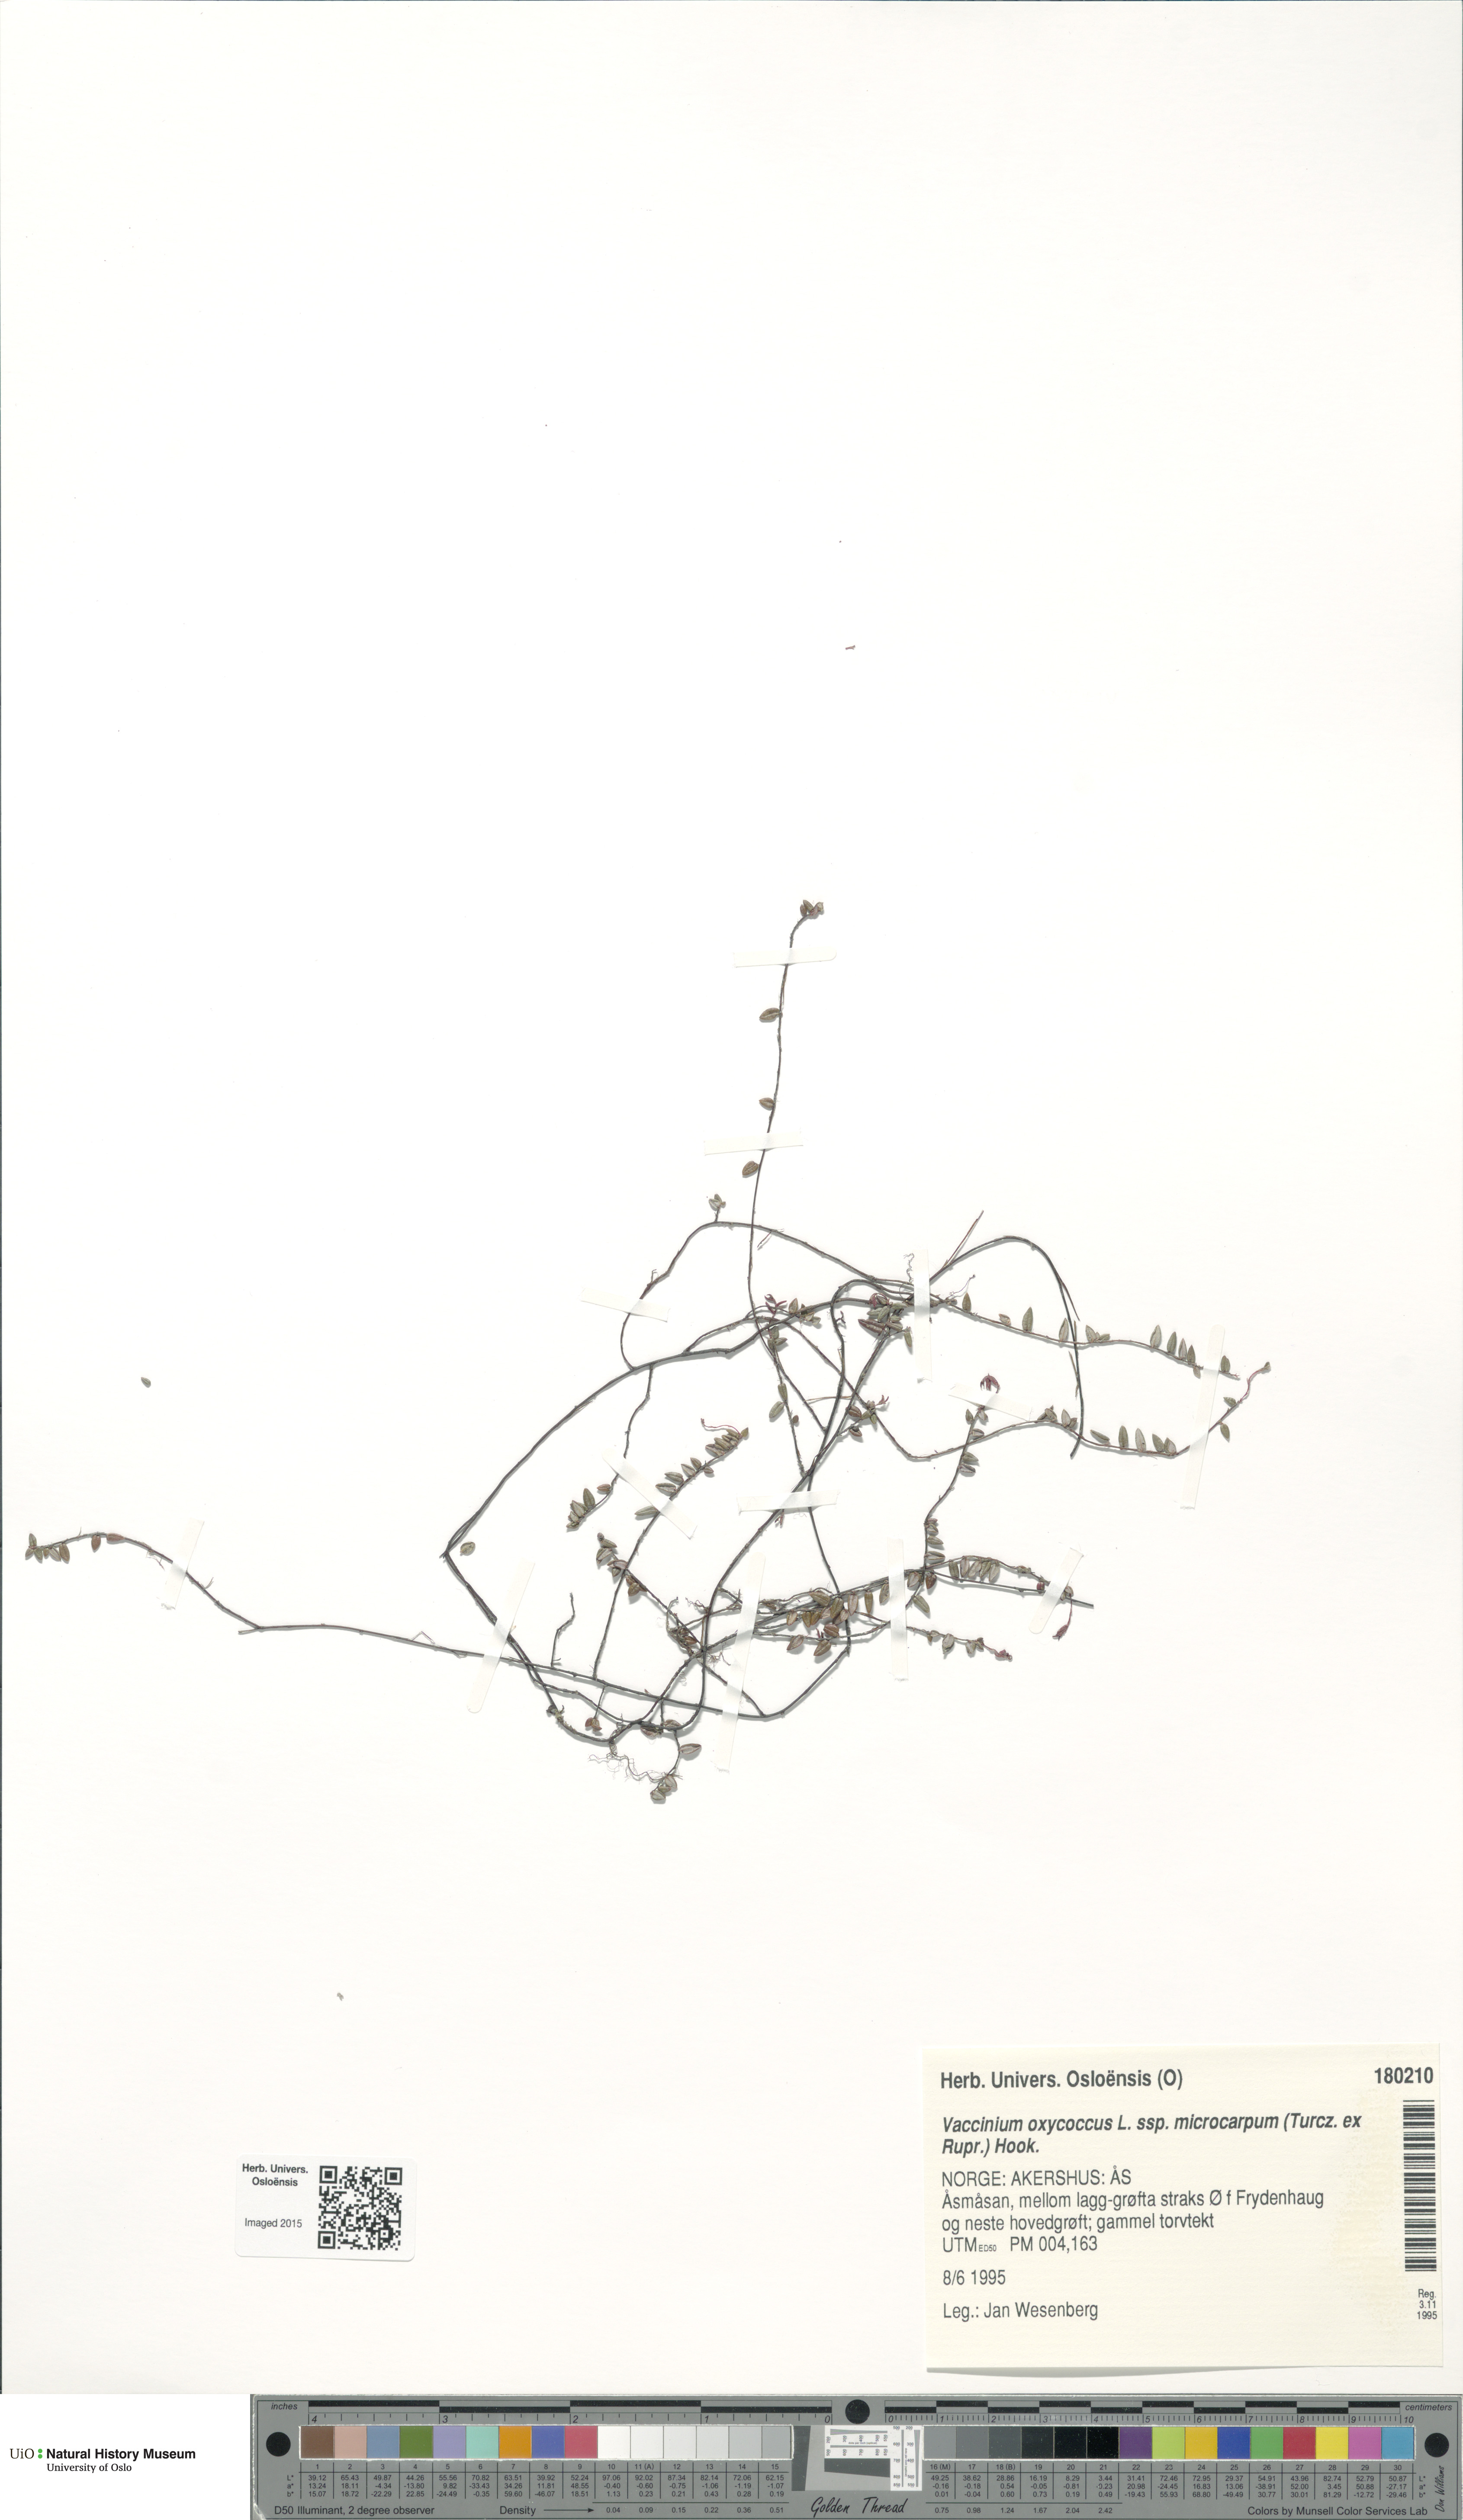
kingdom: Plantae
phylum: Tracheophyta
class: Magnoliopsida
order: Ericales
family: Ericaceae
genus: Vaccinium
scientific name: Vaccinium microcarpum
